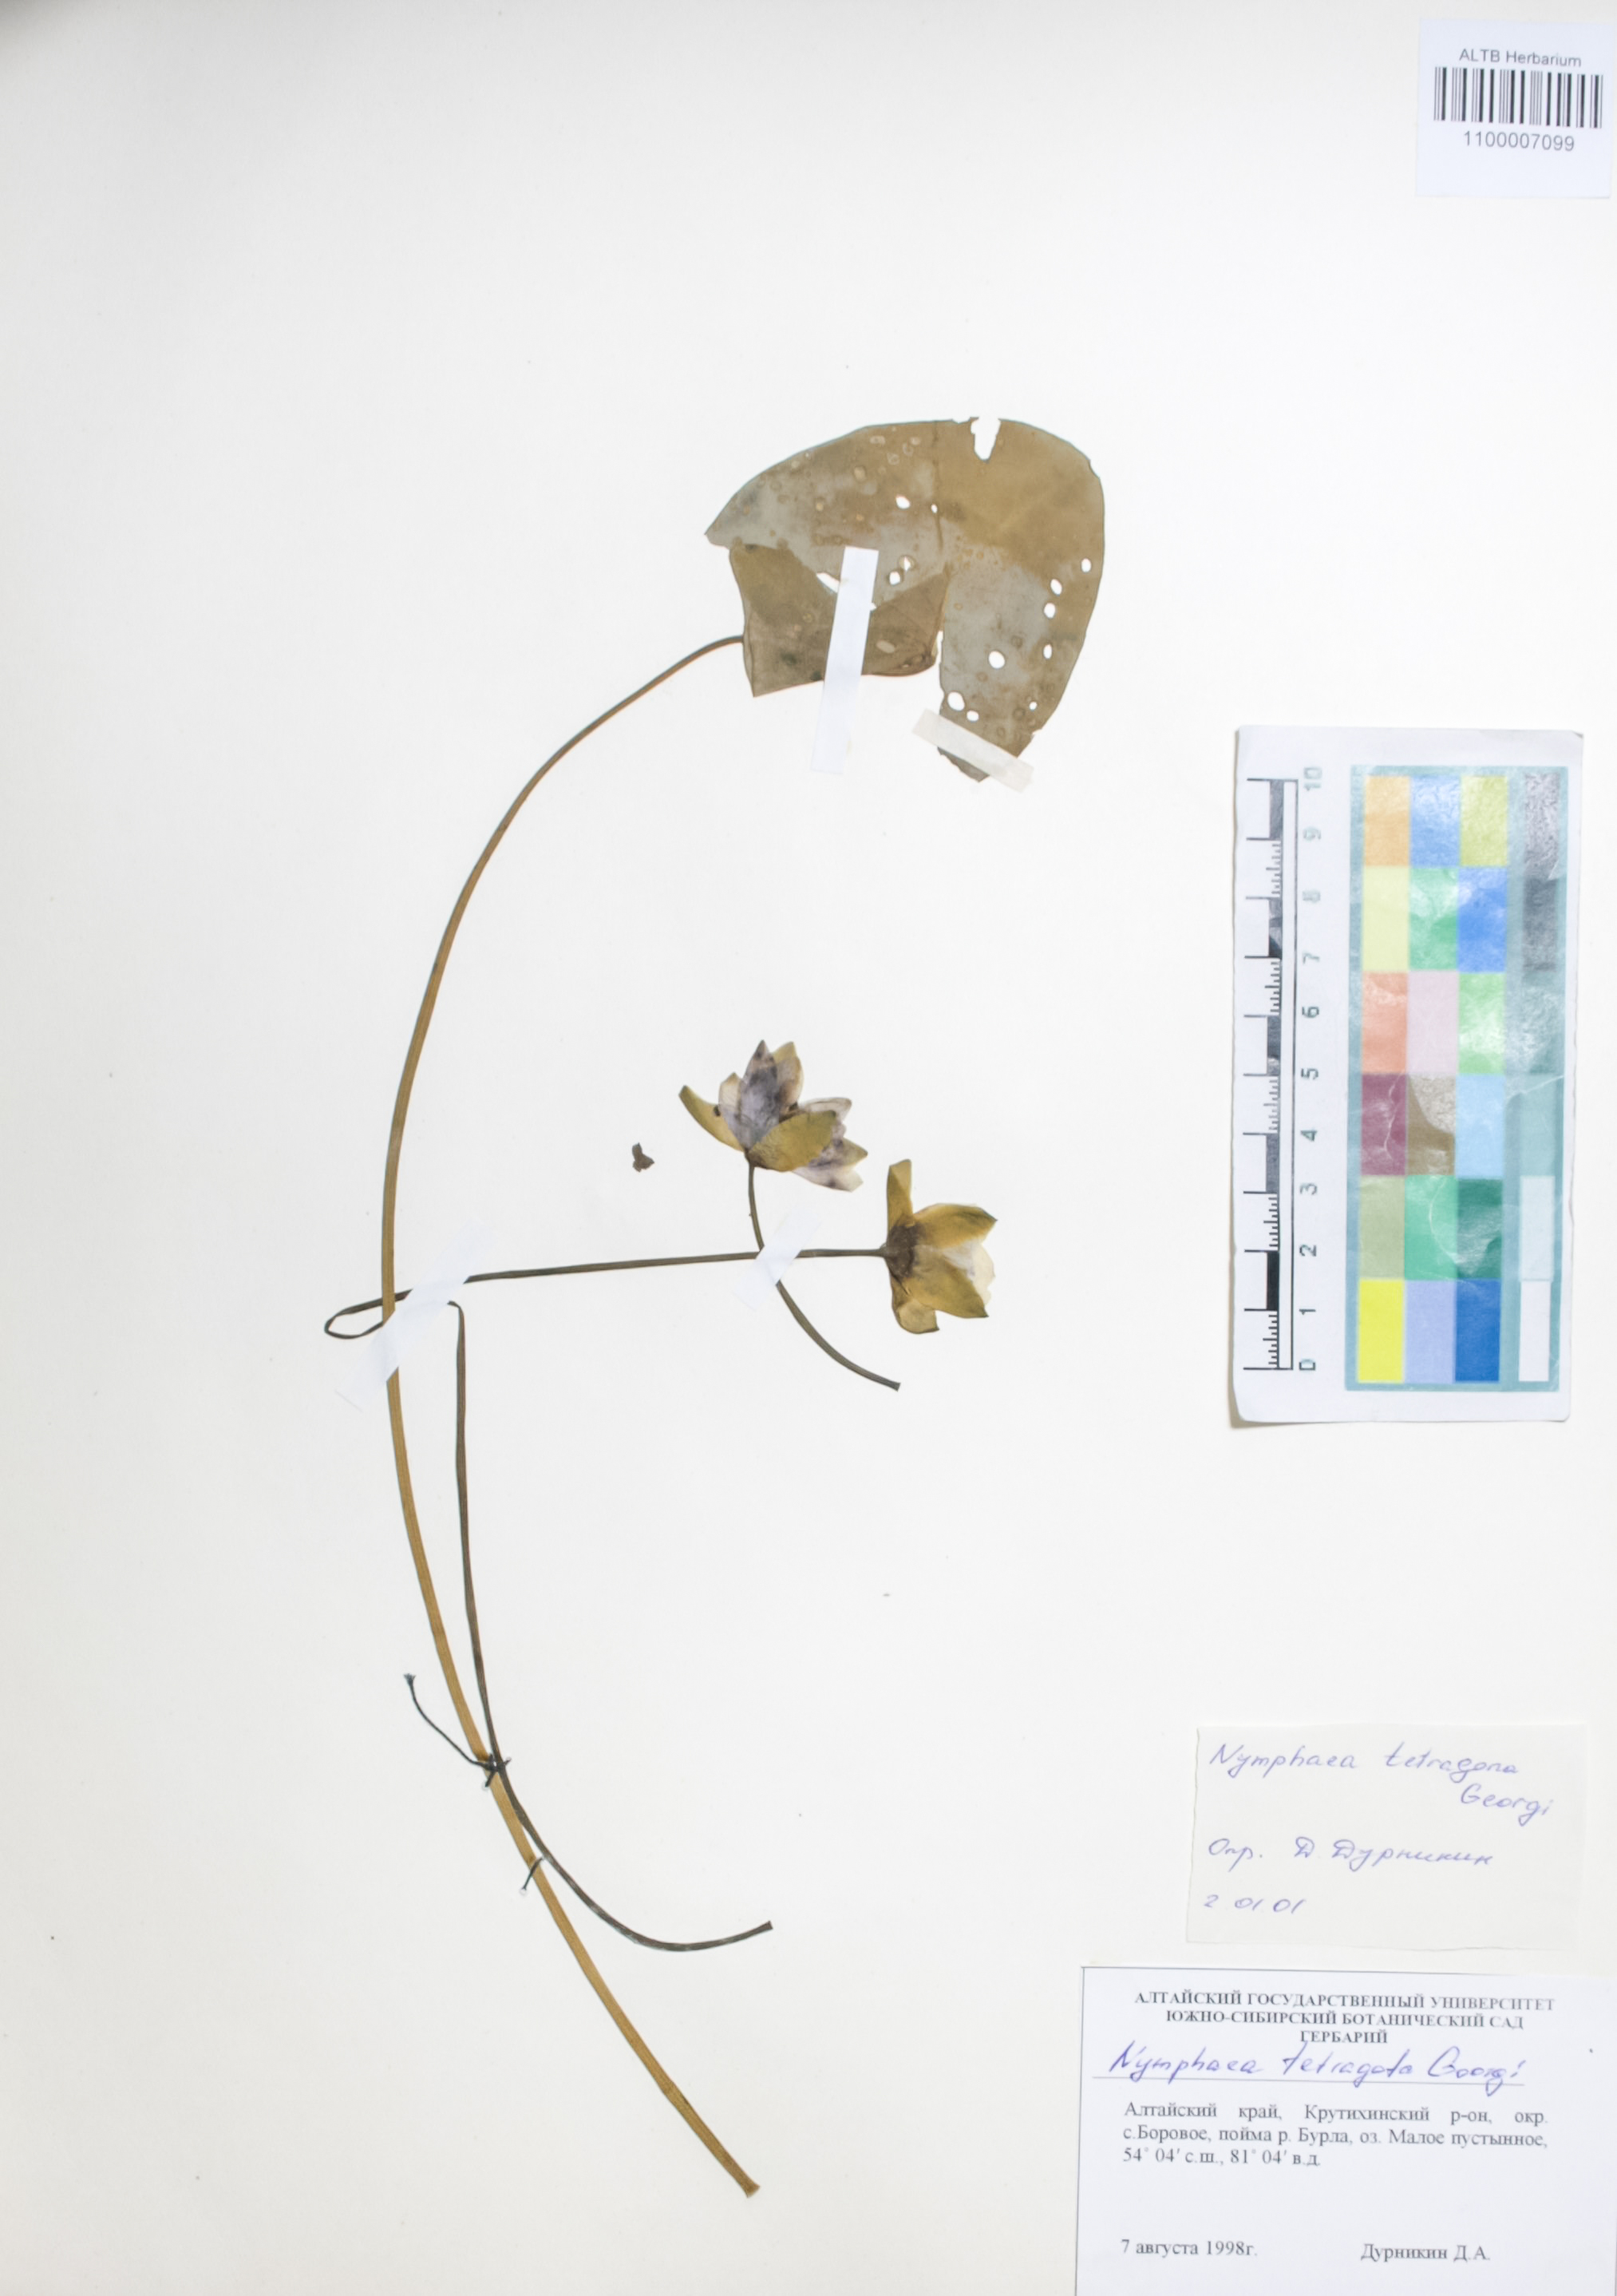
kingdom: Plantae
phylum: Tracheophyta
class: Magnoliopsida
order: Nymphaeales
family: Nymphaeaceae
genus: Nymphaea
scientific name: Nymphaea tetragona
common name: Pygmy water-lily
